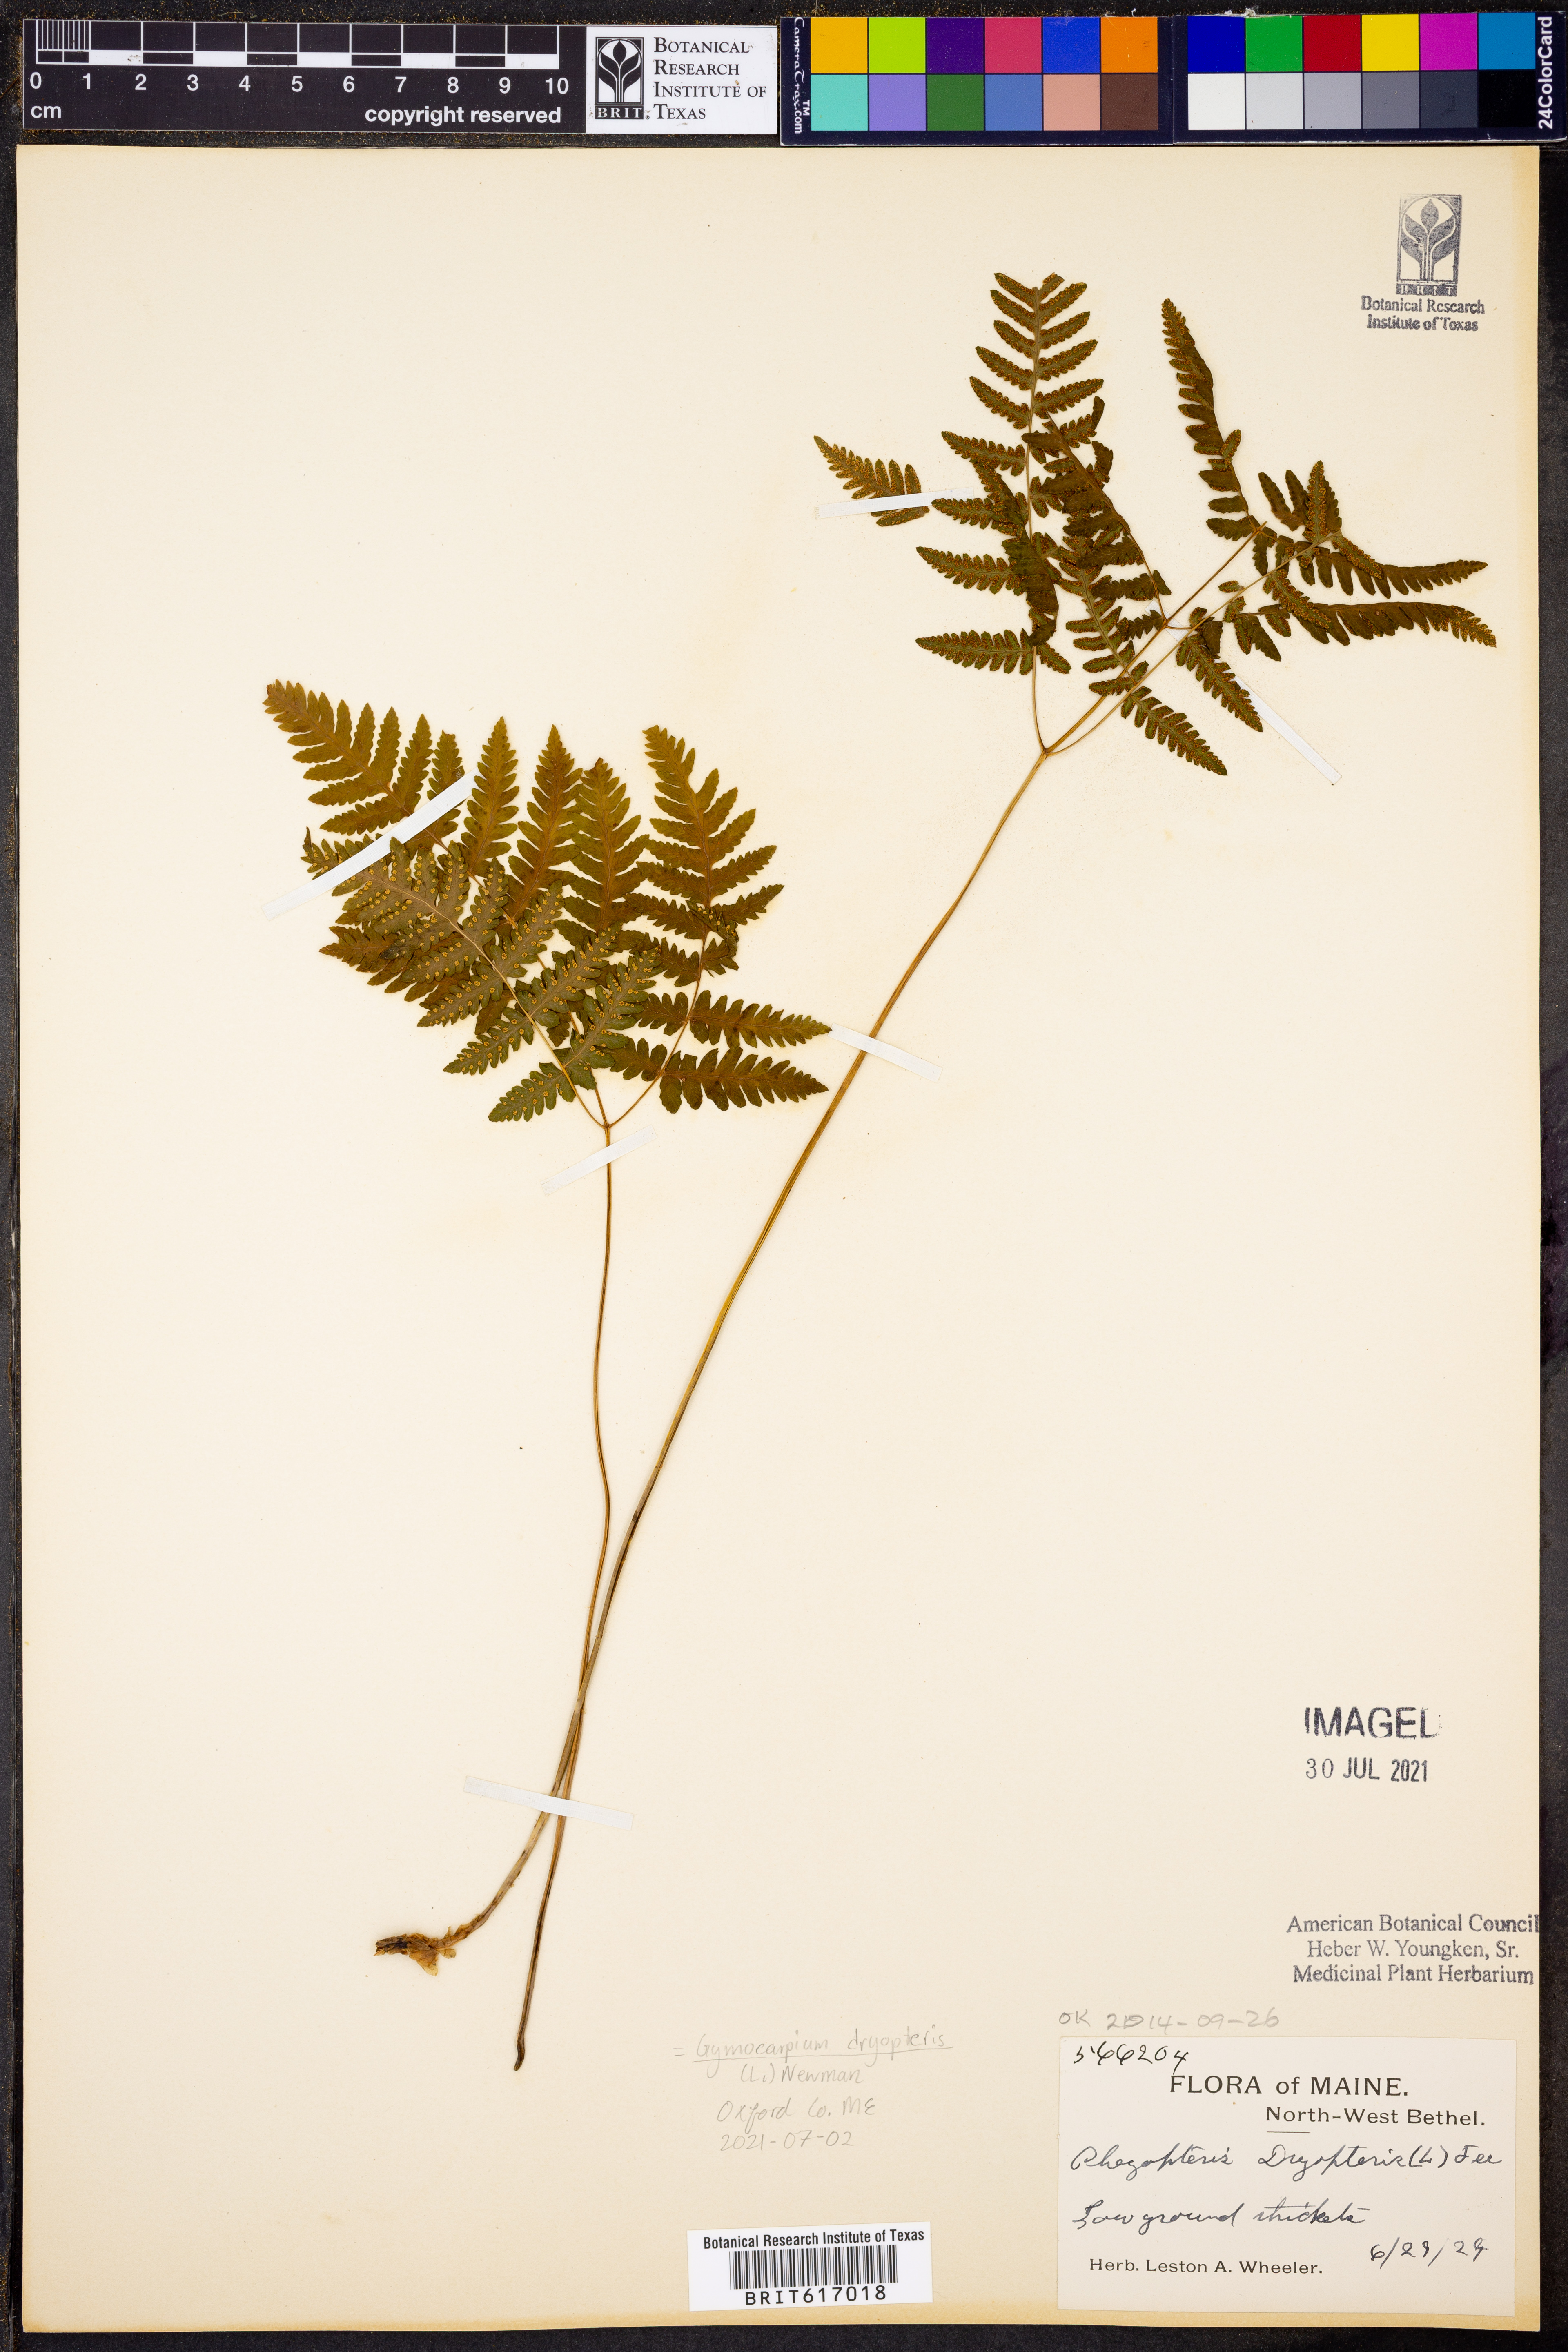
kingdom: Plantae
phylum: Tracheophyta
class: Polypodiopsida
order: Polypodiales
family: Cystopteridaceae
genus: Gymnocarpium
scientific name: Gymnocarpium dryopteris
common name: Oak fern
